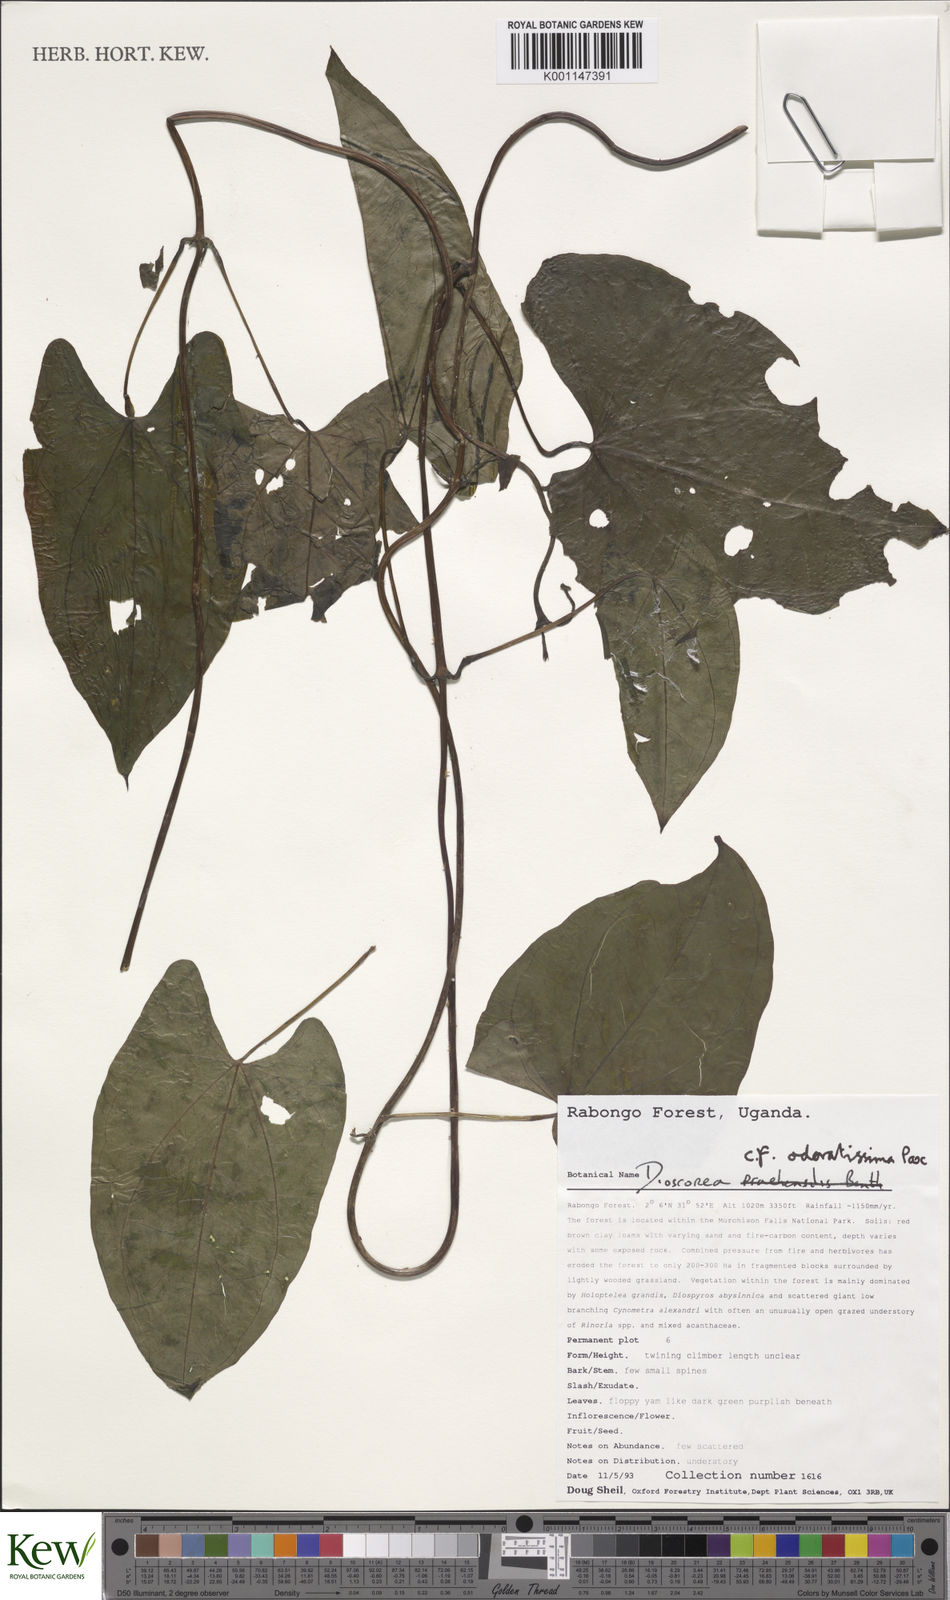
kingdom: Plantae
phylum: Tracheophyta
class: Liliopsida
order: Dioscoreales
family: Dioscoreaceae
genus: Dioscorea
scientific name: Dioscorea praehensilis
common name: Bush yam
